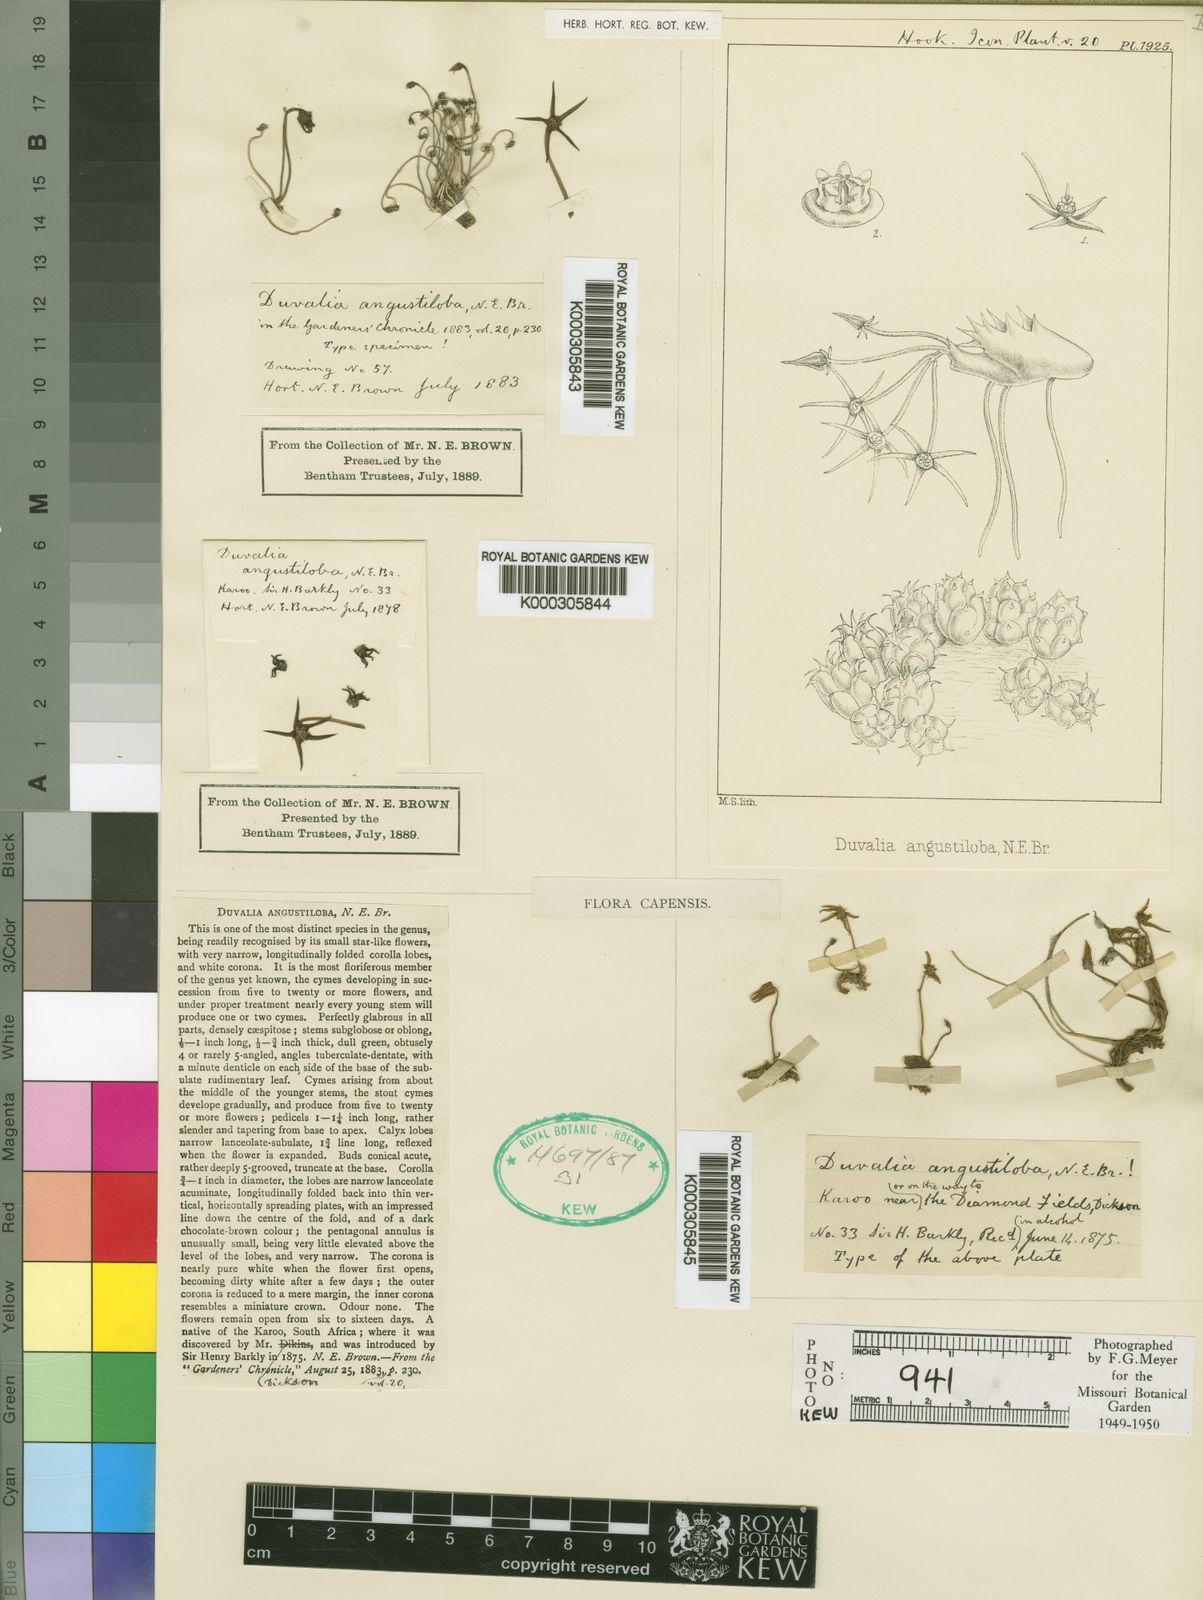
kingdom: Plantae
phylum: Tracheophyta
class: Magnoliopsida
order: Gentianales
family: Apocynaceae
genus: Ceropegia
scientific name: Ceropegia perangusta
